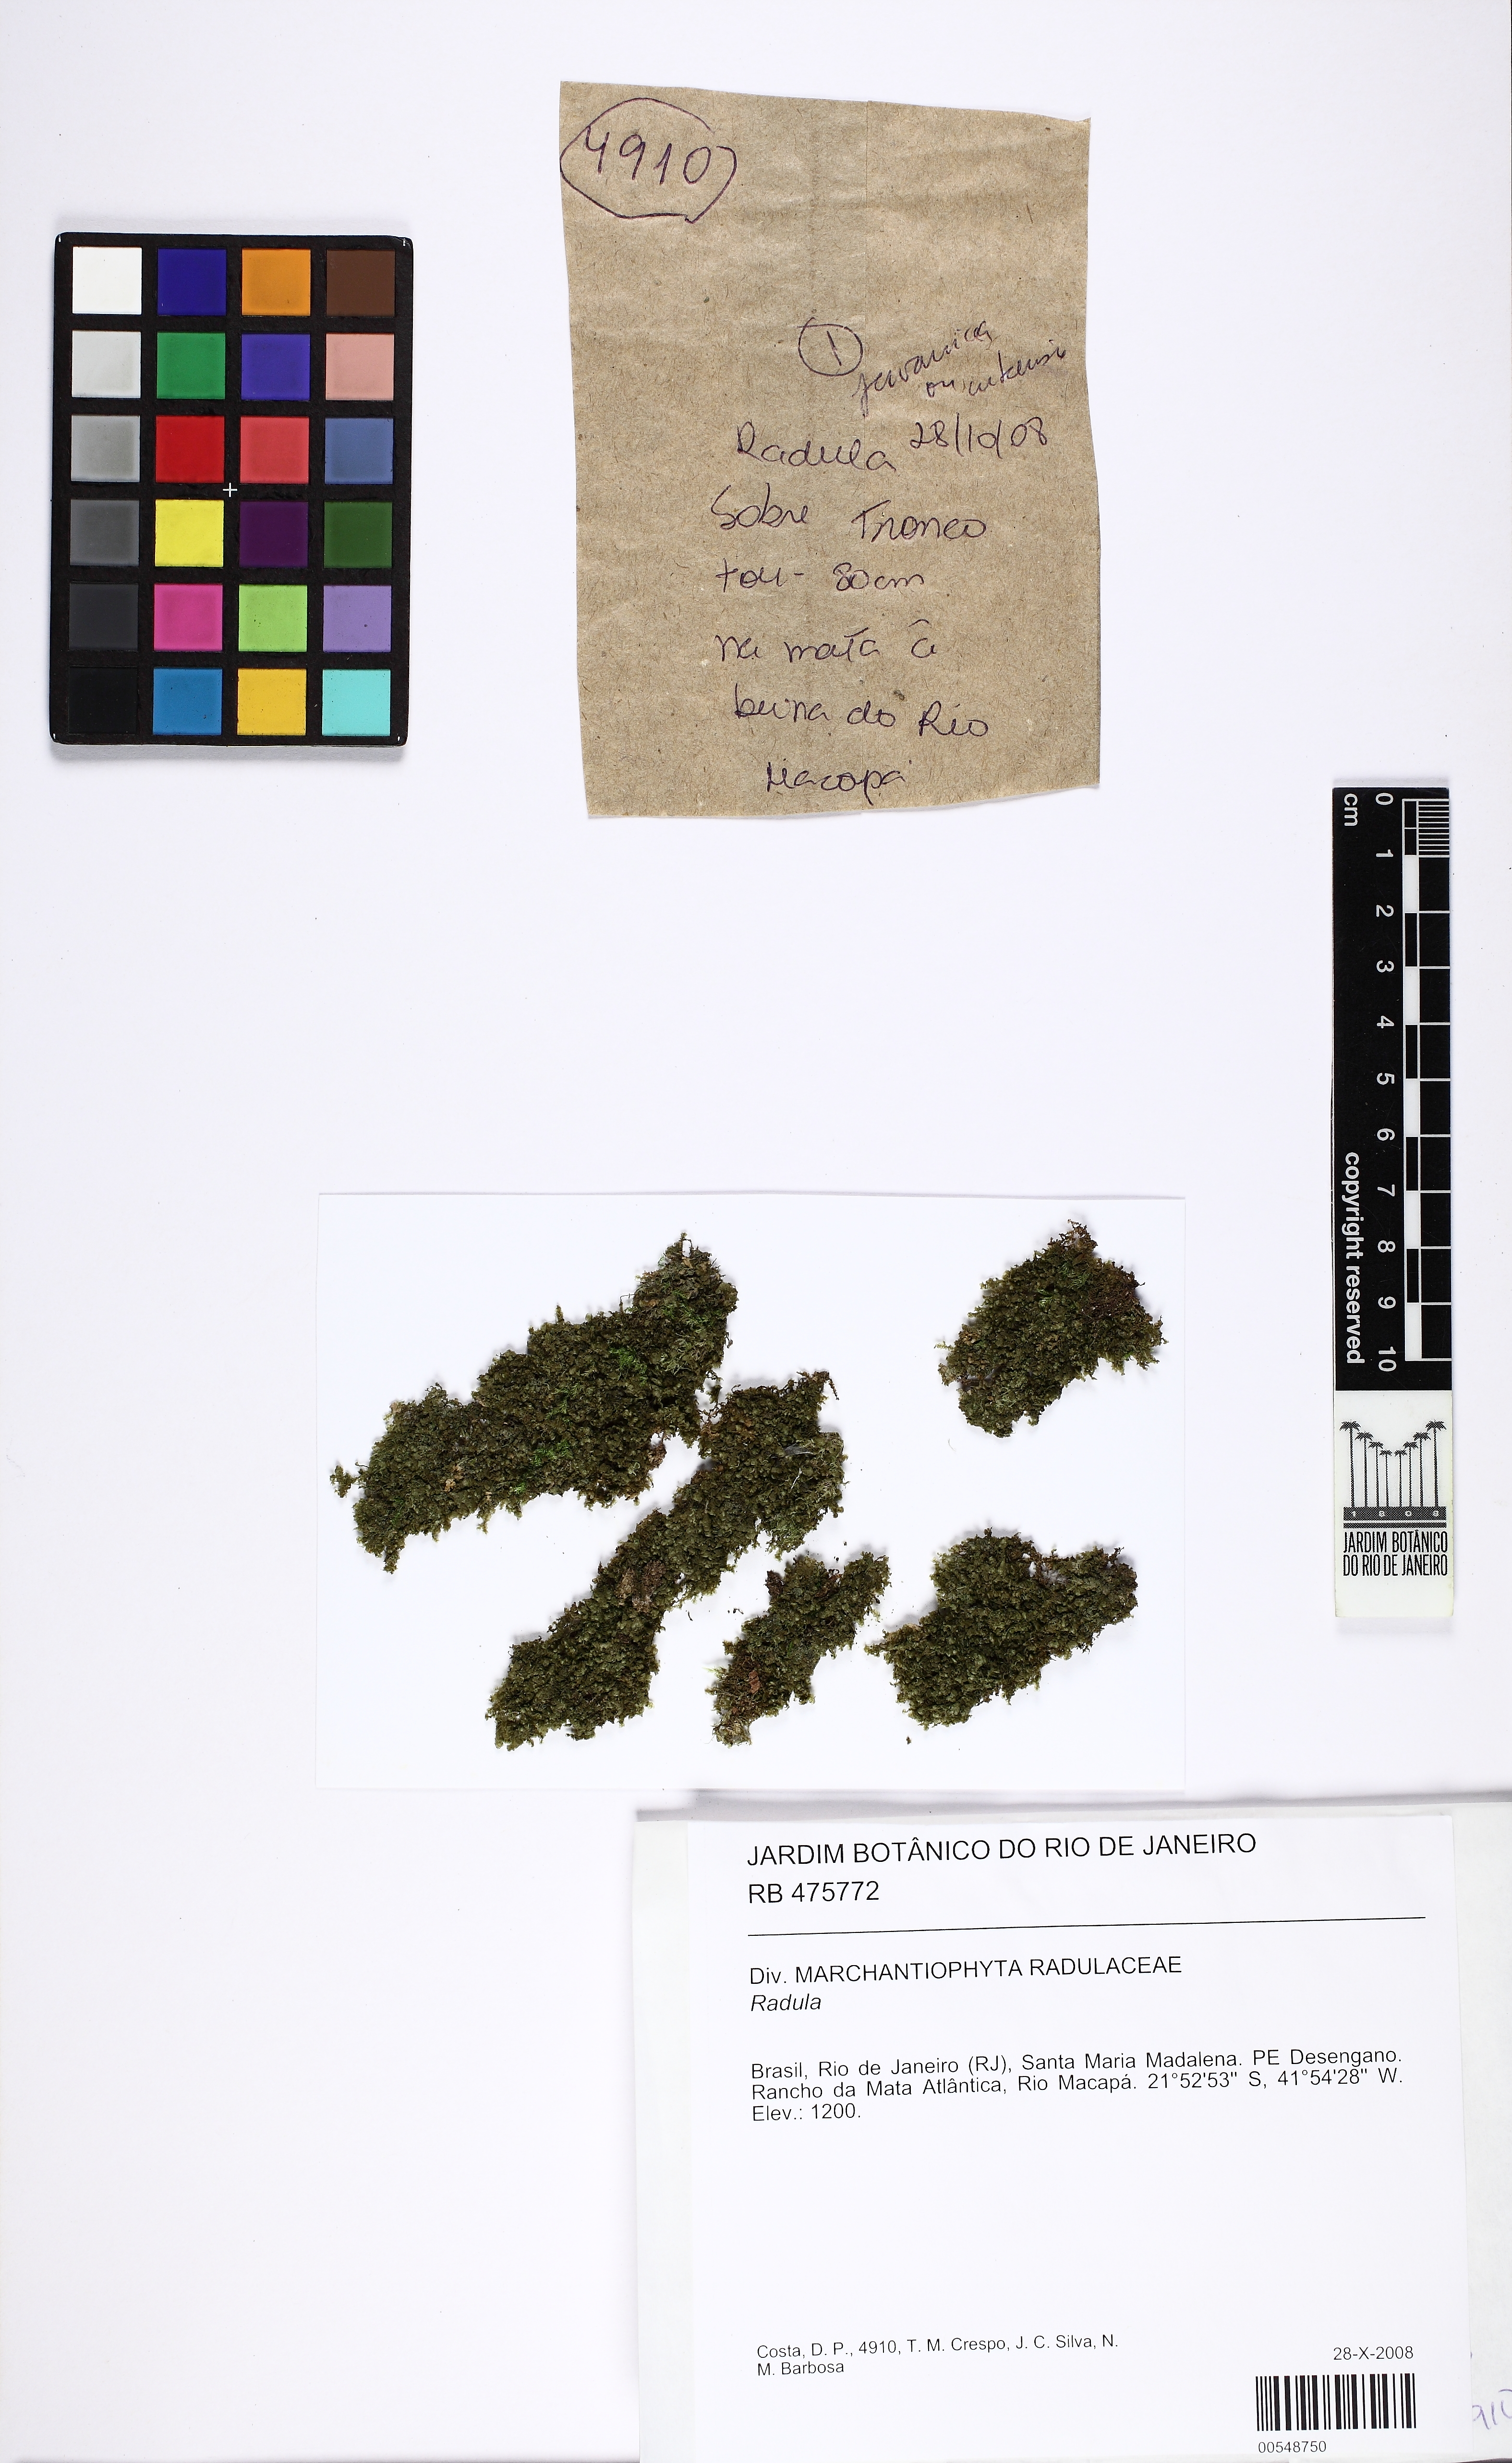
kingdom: Plantae
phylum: Marchantiophyta
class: Jungermanniopsida
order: Porellales
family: Radulaceae
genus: Radula
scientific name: Radula
